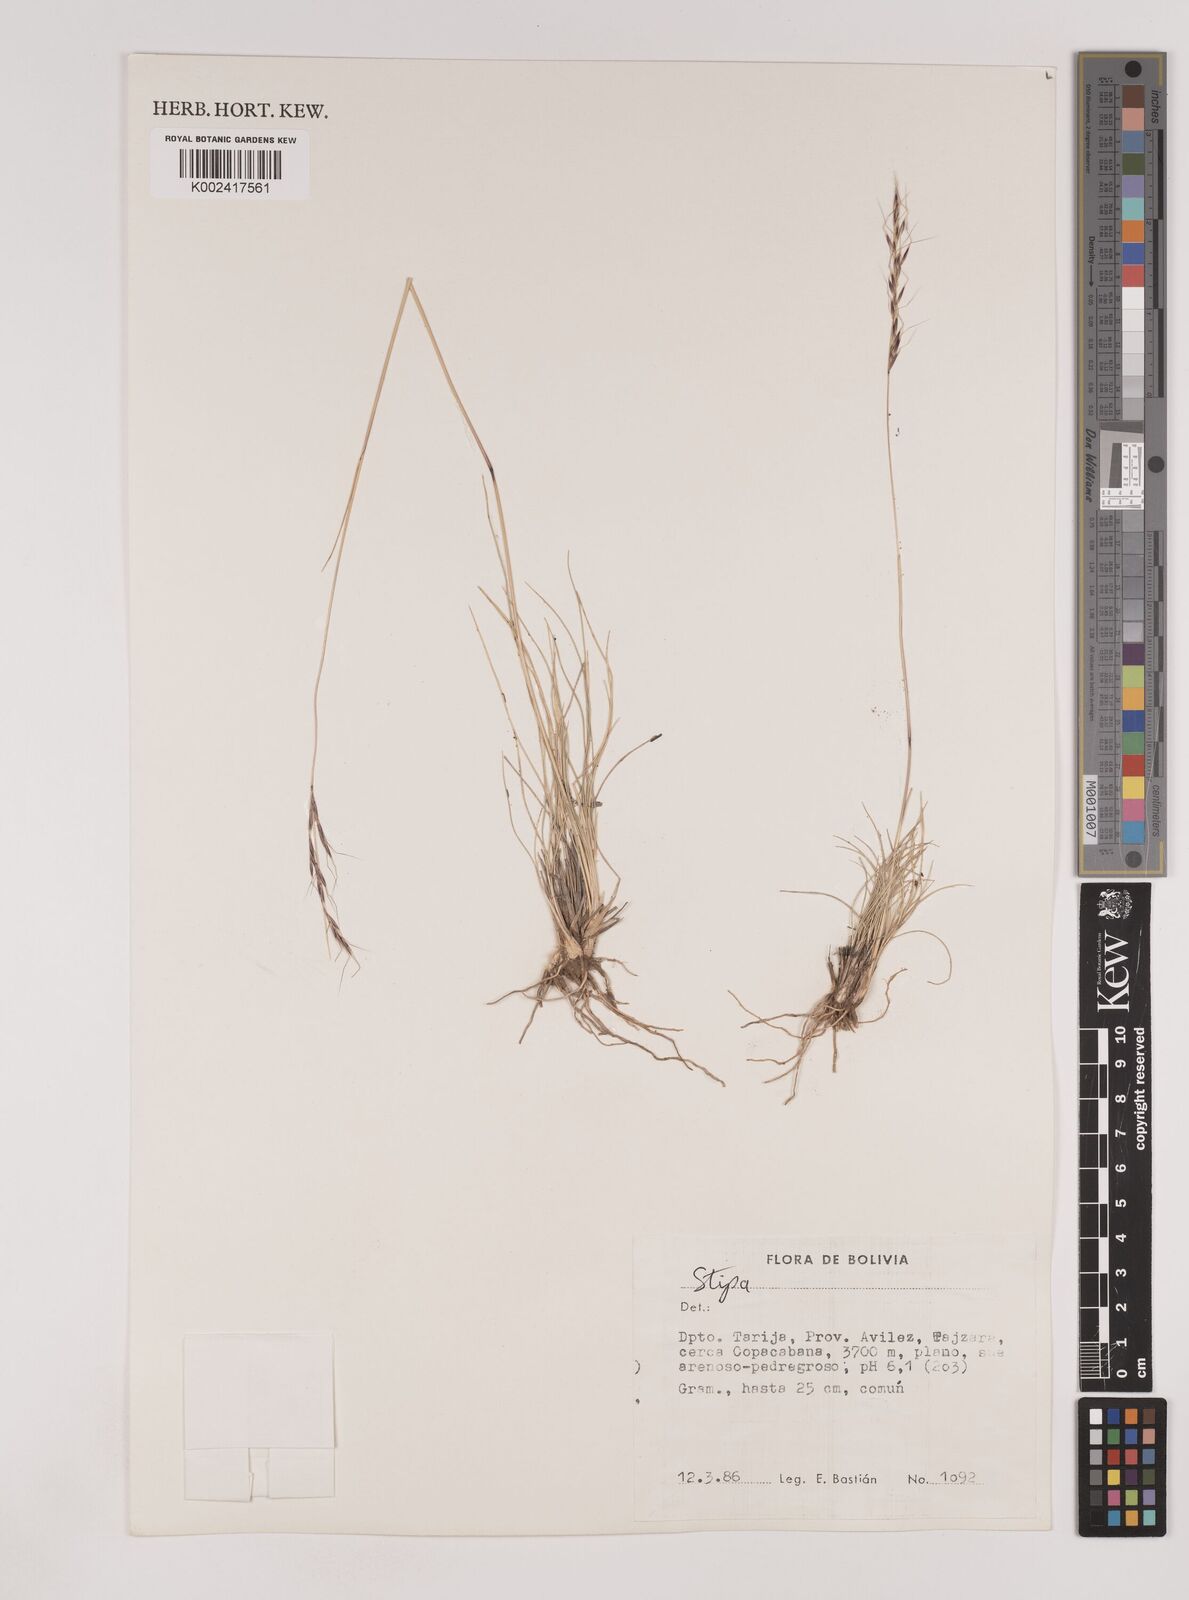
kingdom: Plantae
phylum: Tracheophyta
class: Liliopsida
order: Poales
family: Poaceae
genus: Nassella
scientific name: Nassella rupestris
